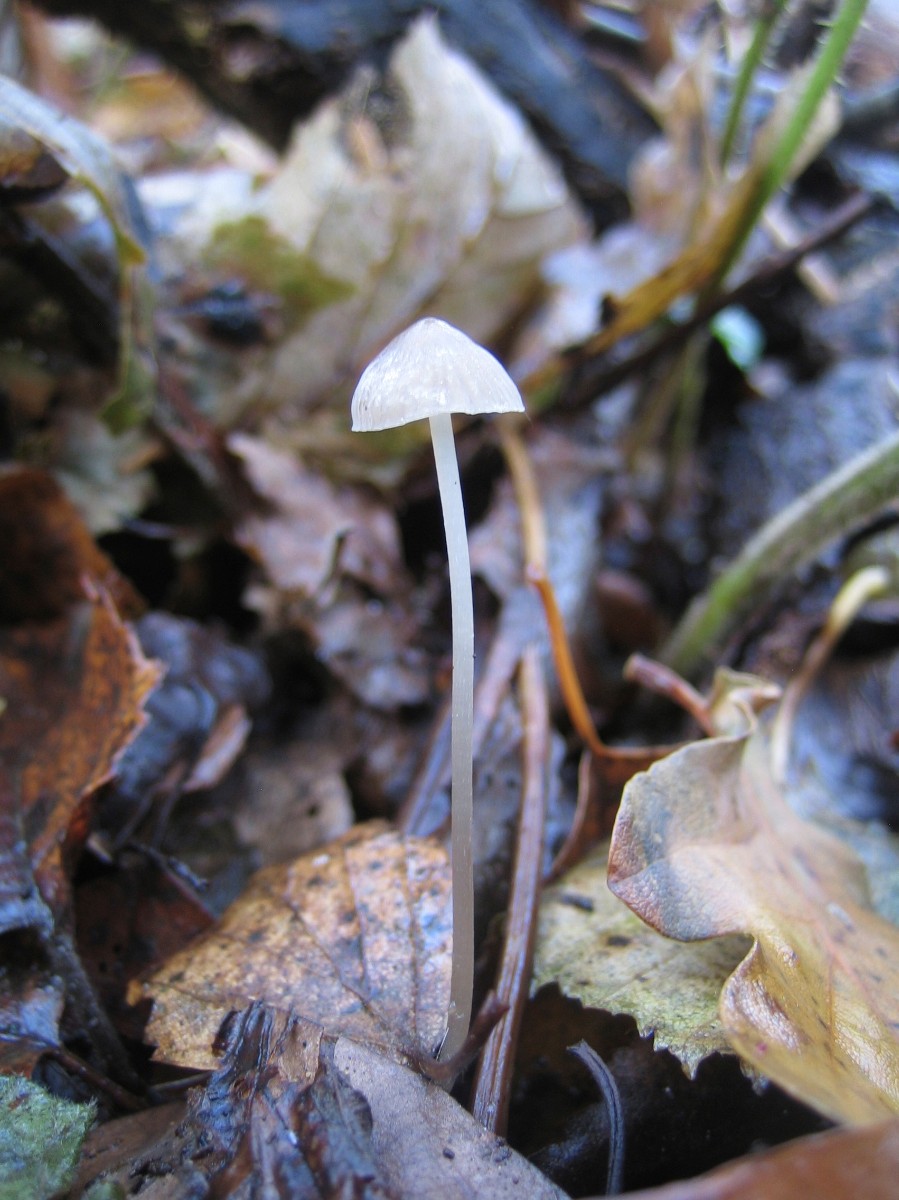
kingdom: Fungi
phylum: Basidiomycota
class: Agaricomycetes
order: Agaricales
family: Mycenaceae
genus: Mycena
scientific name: Mycena
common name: huesvamp
